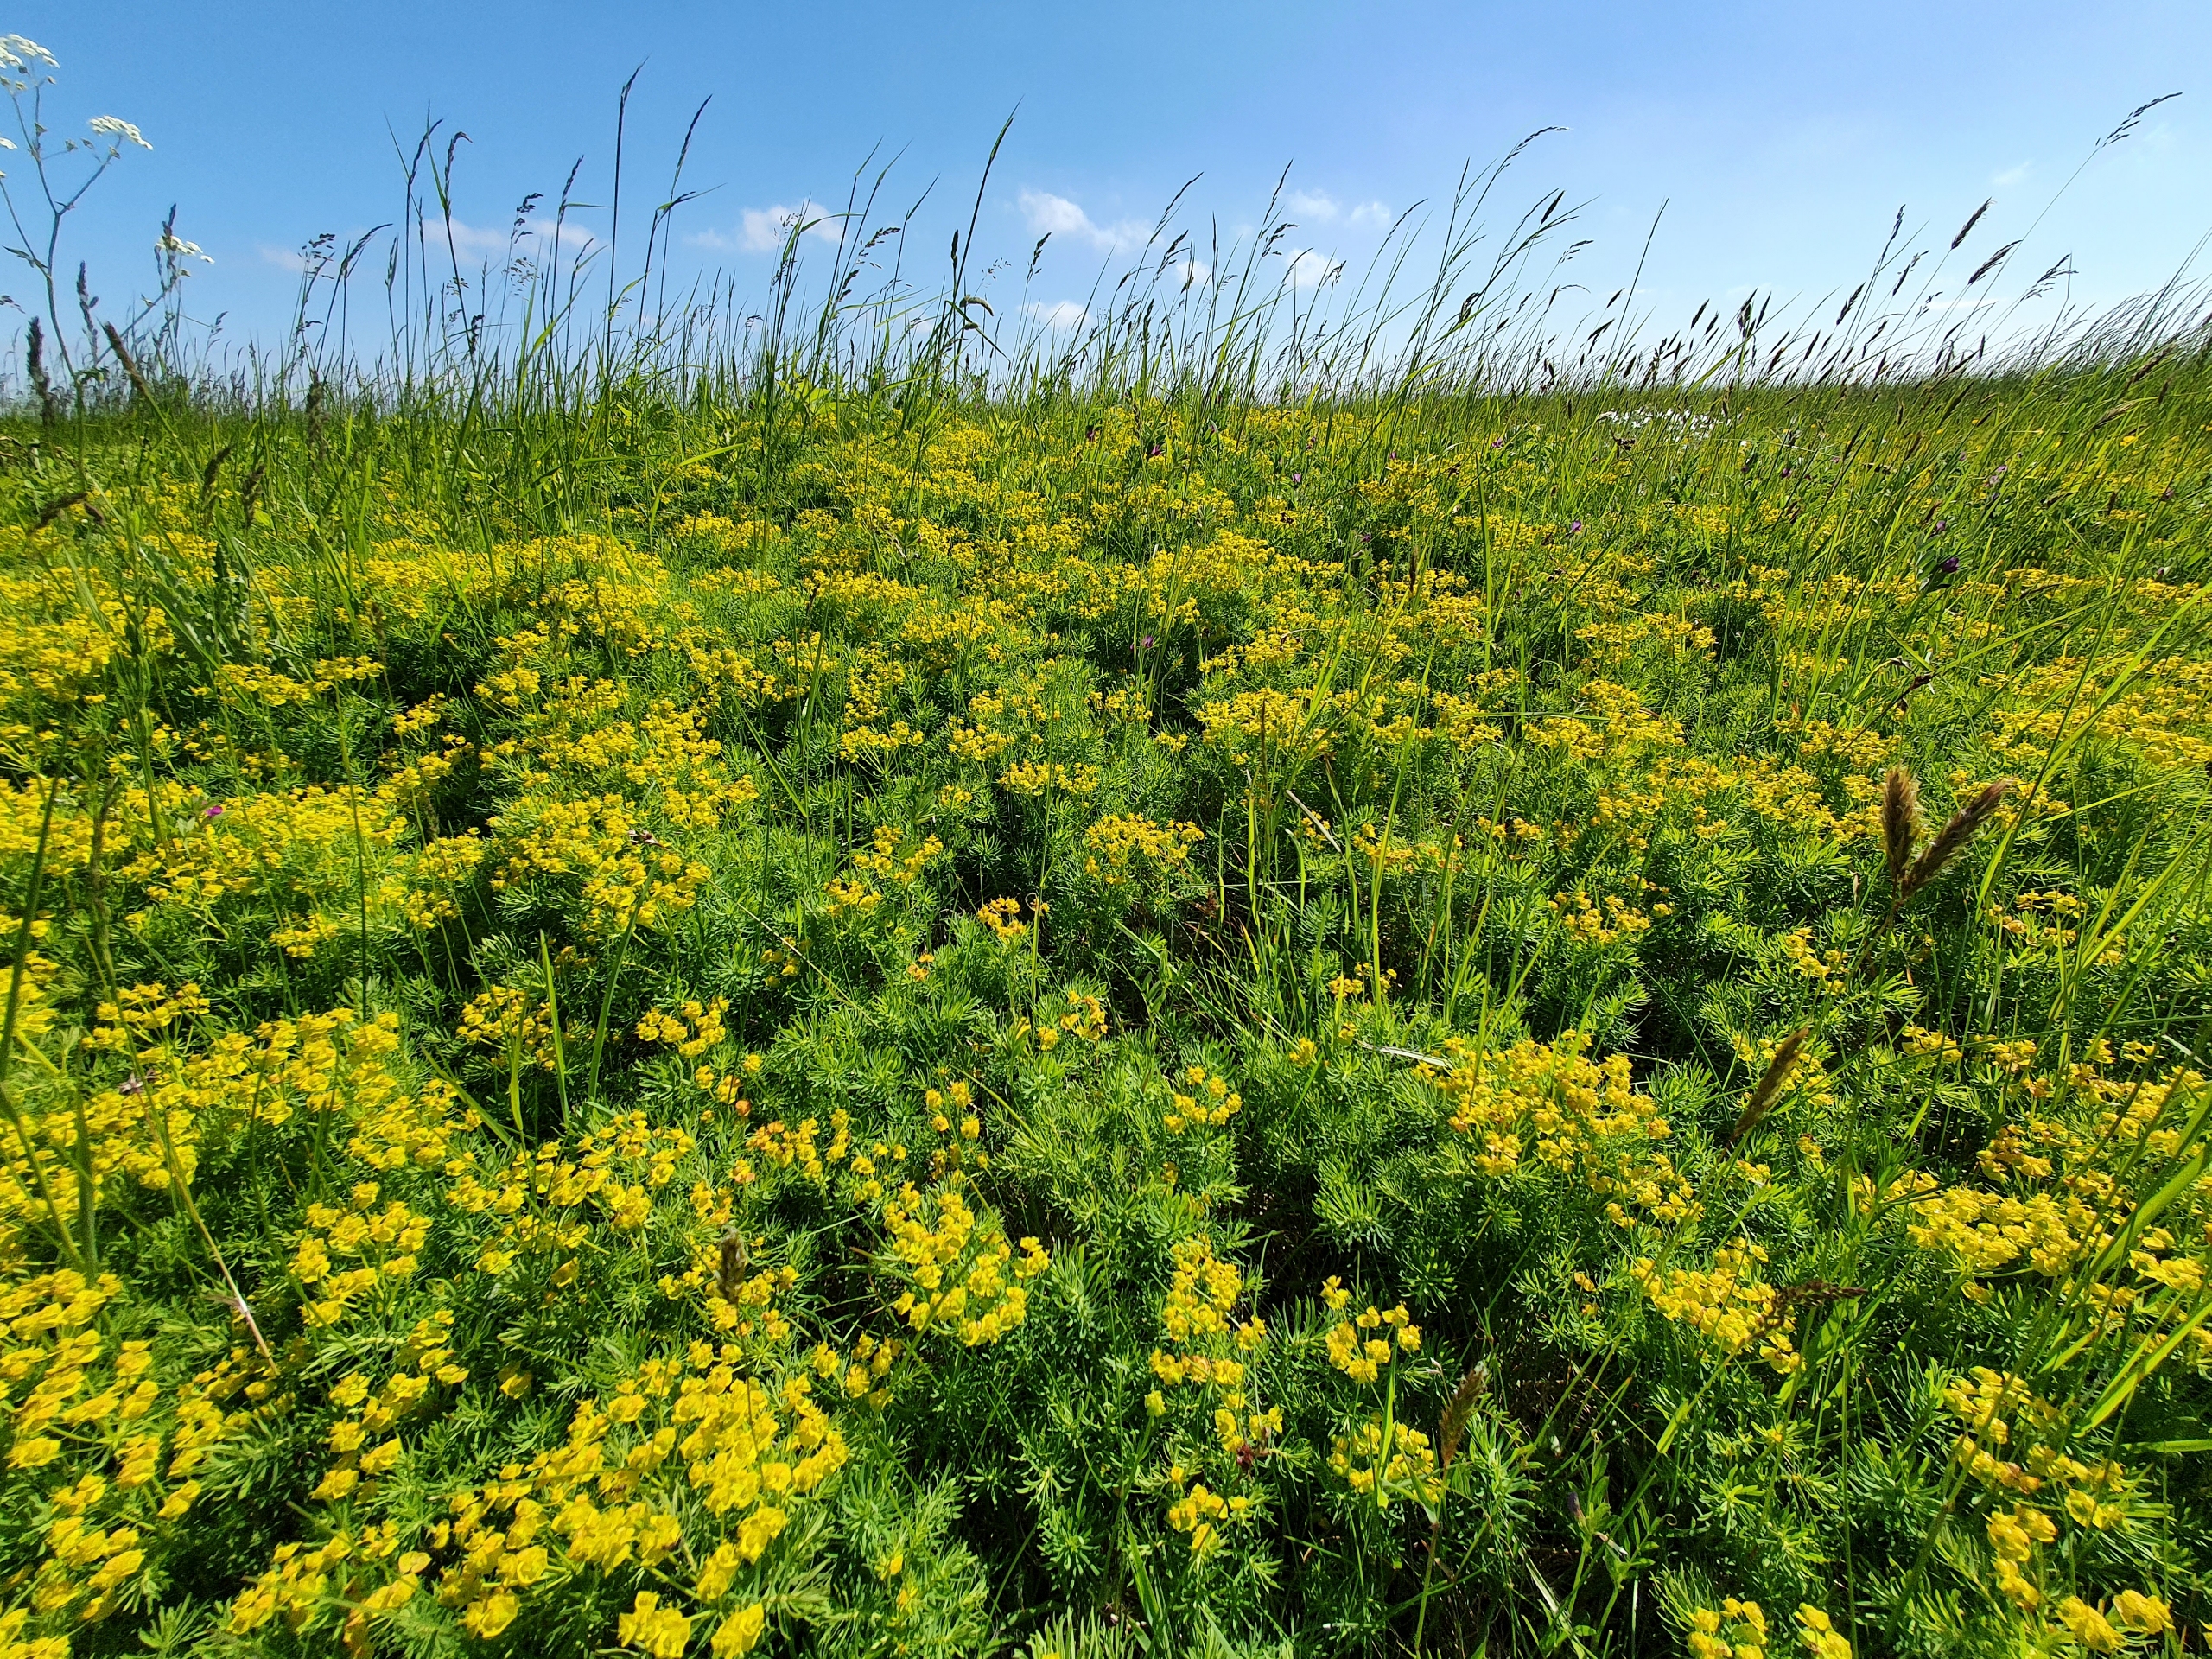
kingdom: Plantae
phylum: Tracheophyta
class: Magnoliopsida
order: Malpighiales
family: Euphorbiaceae
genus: Euphorbia
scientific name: Euphorbia cyparissias
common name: Cypres-vortemælk
